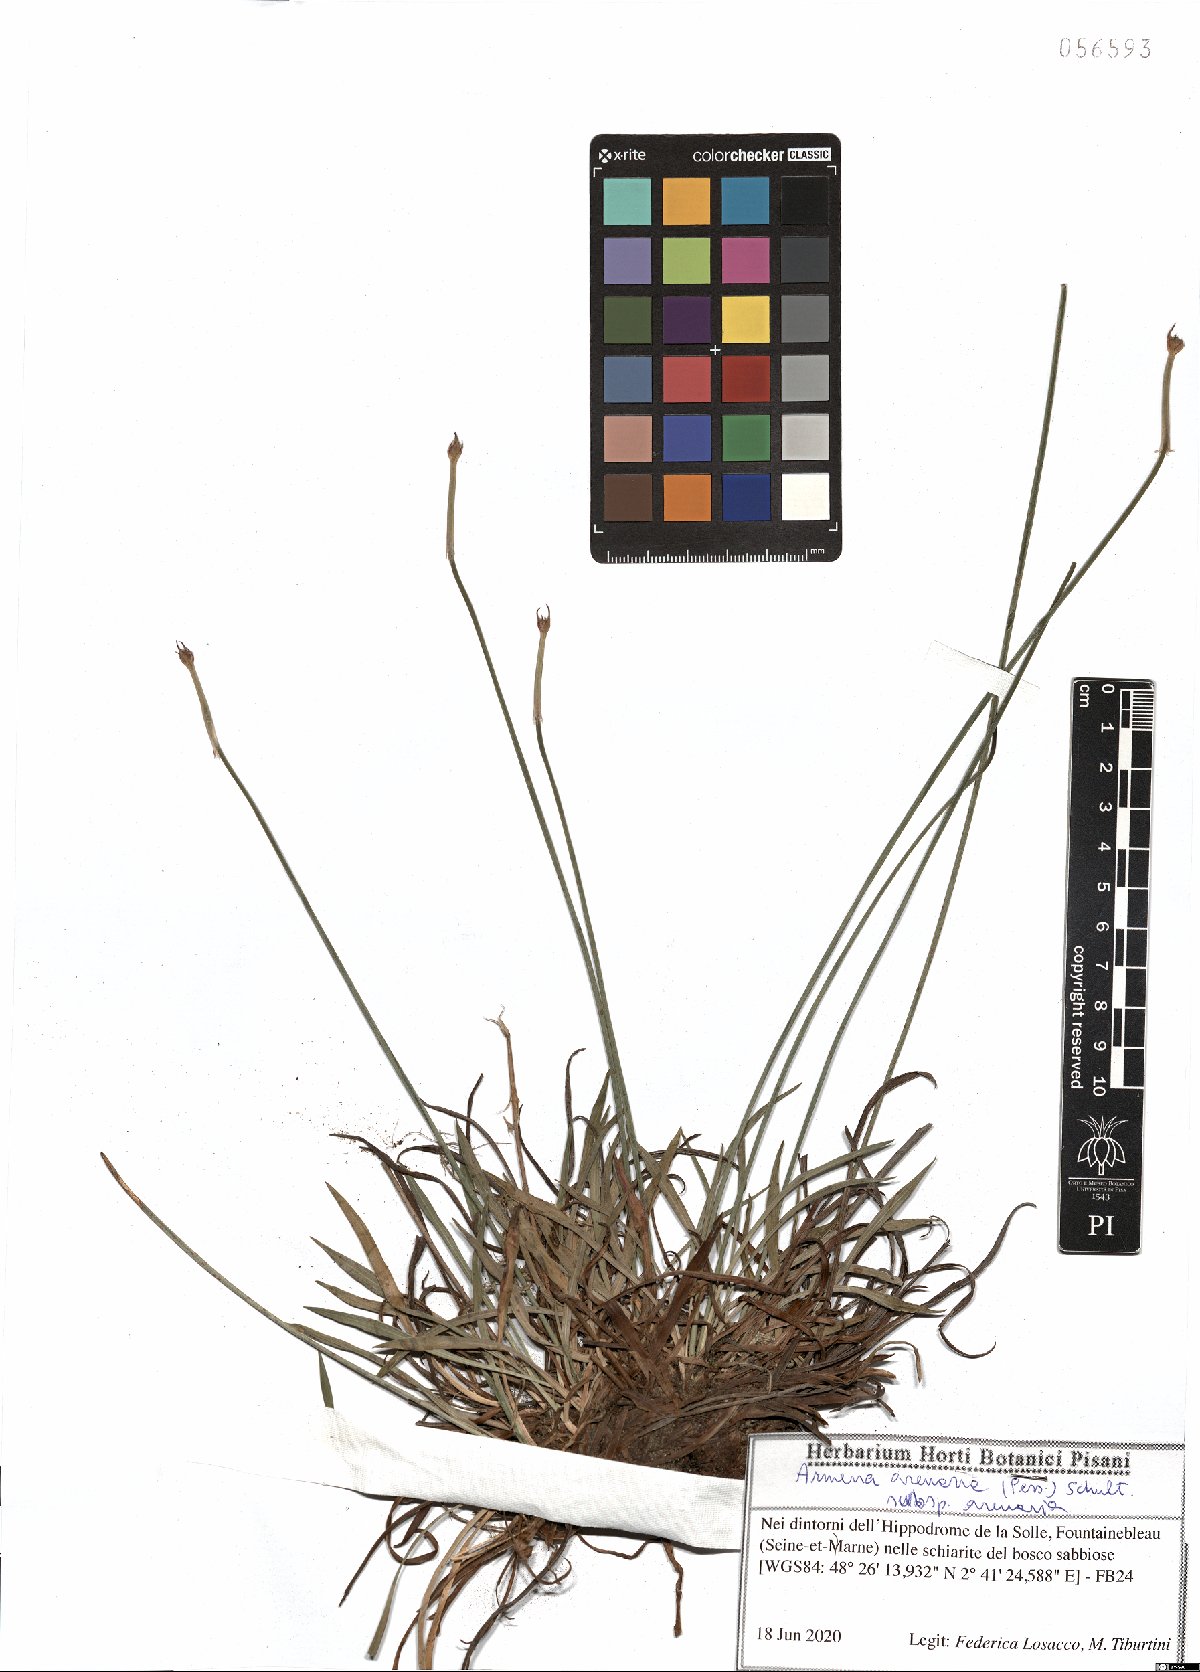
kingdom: Plantae
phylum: Tracheophyta
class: Magnoliopsida
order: Caryophyllales
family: Plumbaginaceae
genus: Armeria
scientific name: Armeria arenaria
